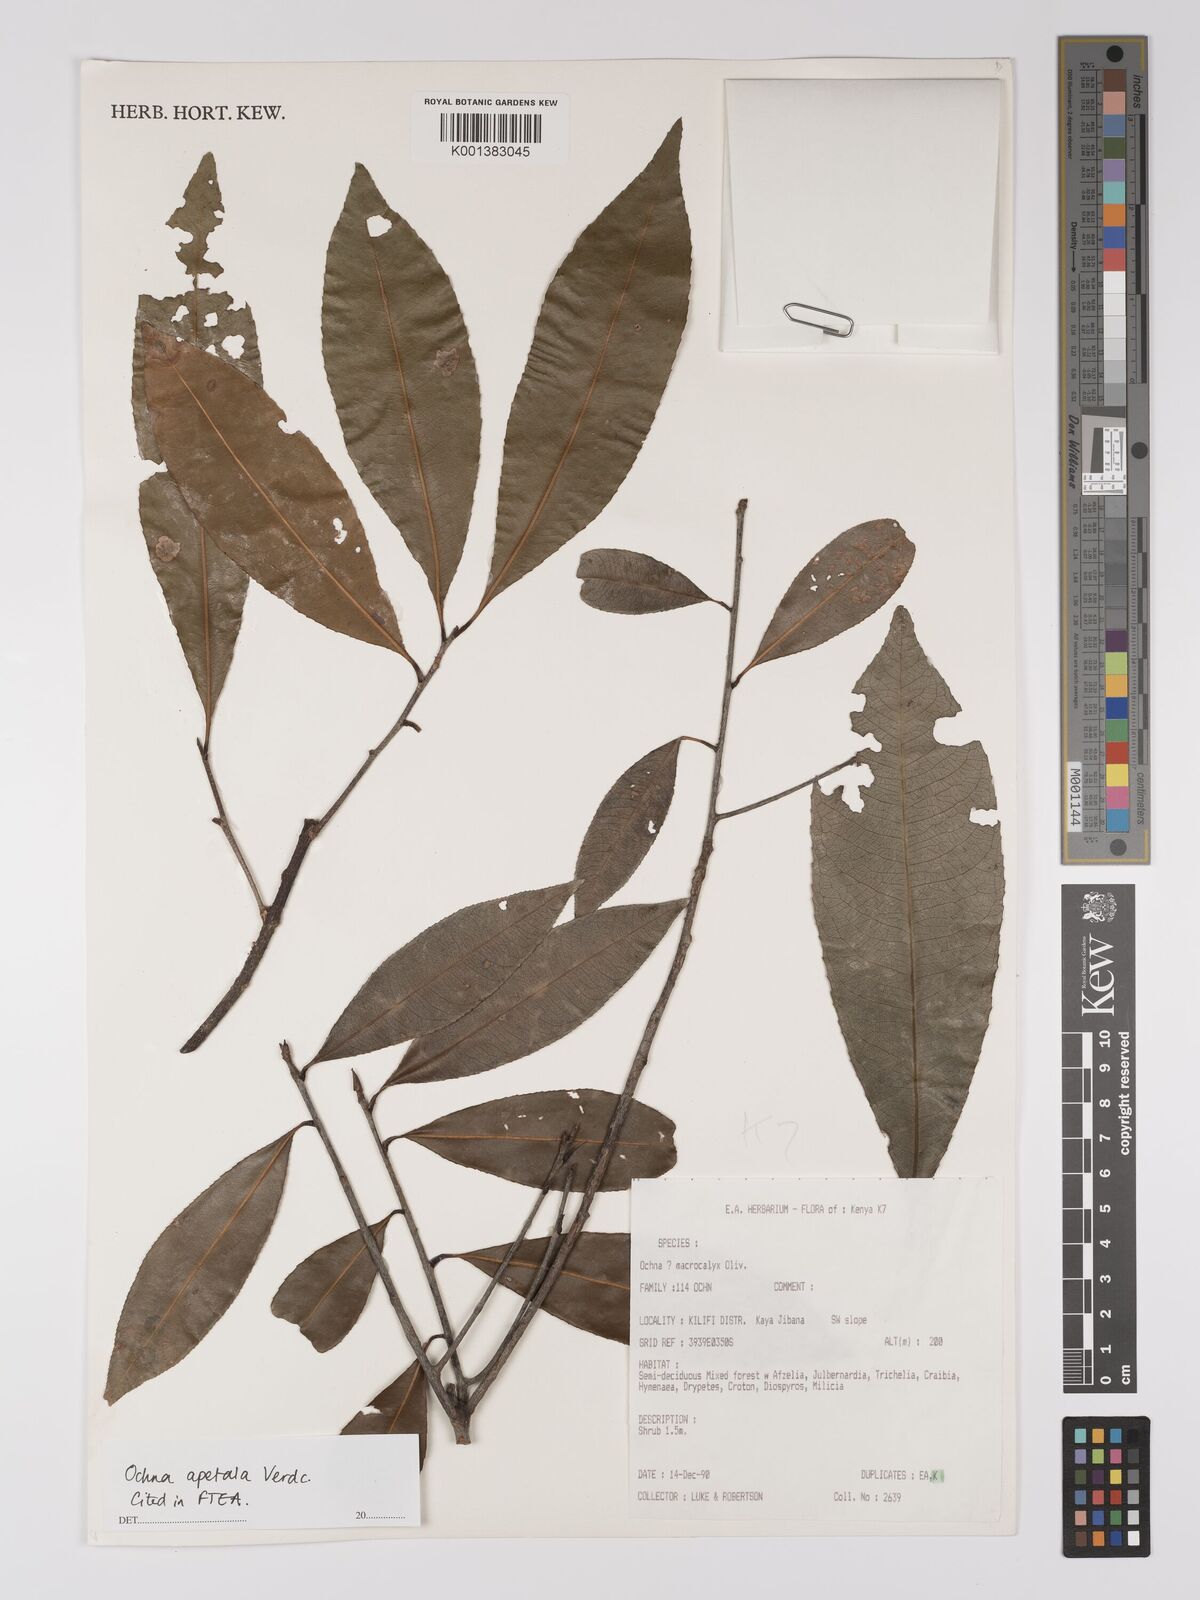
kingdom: Plantae
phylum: Tracheophyta
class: Magnoliopsida
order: Malpighiales
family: Ochnaceae
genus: Ochna
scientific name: Ochna apetala
